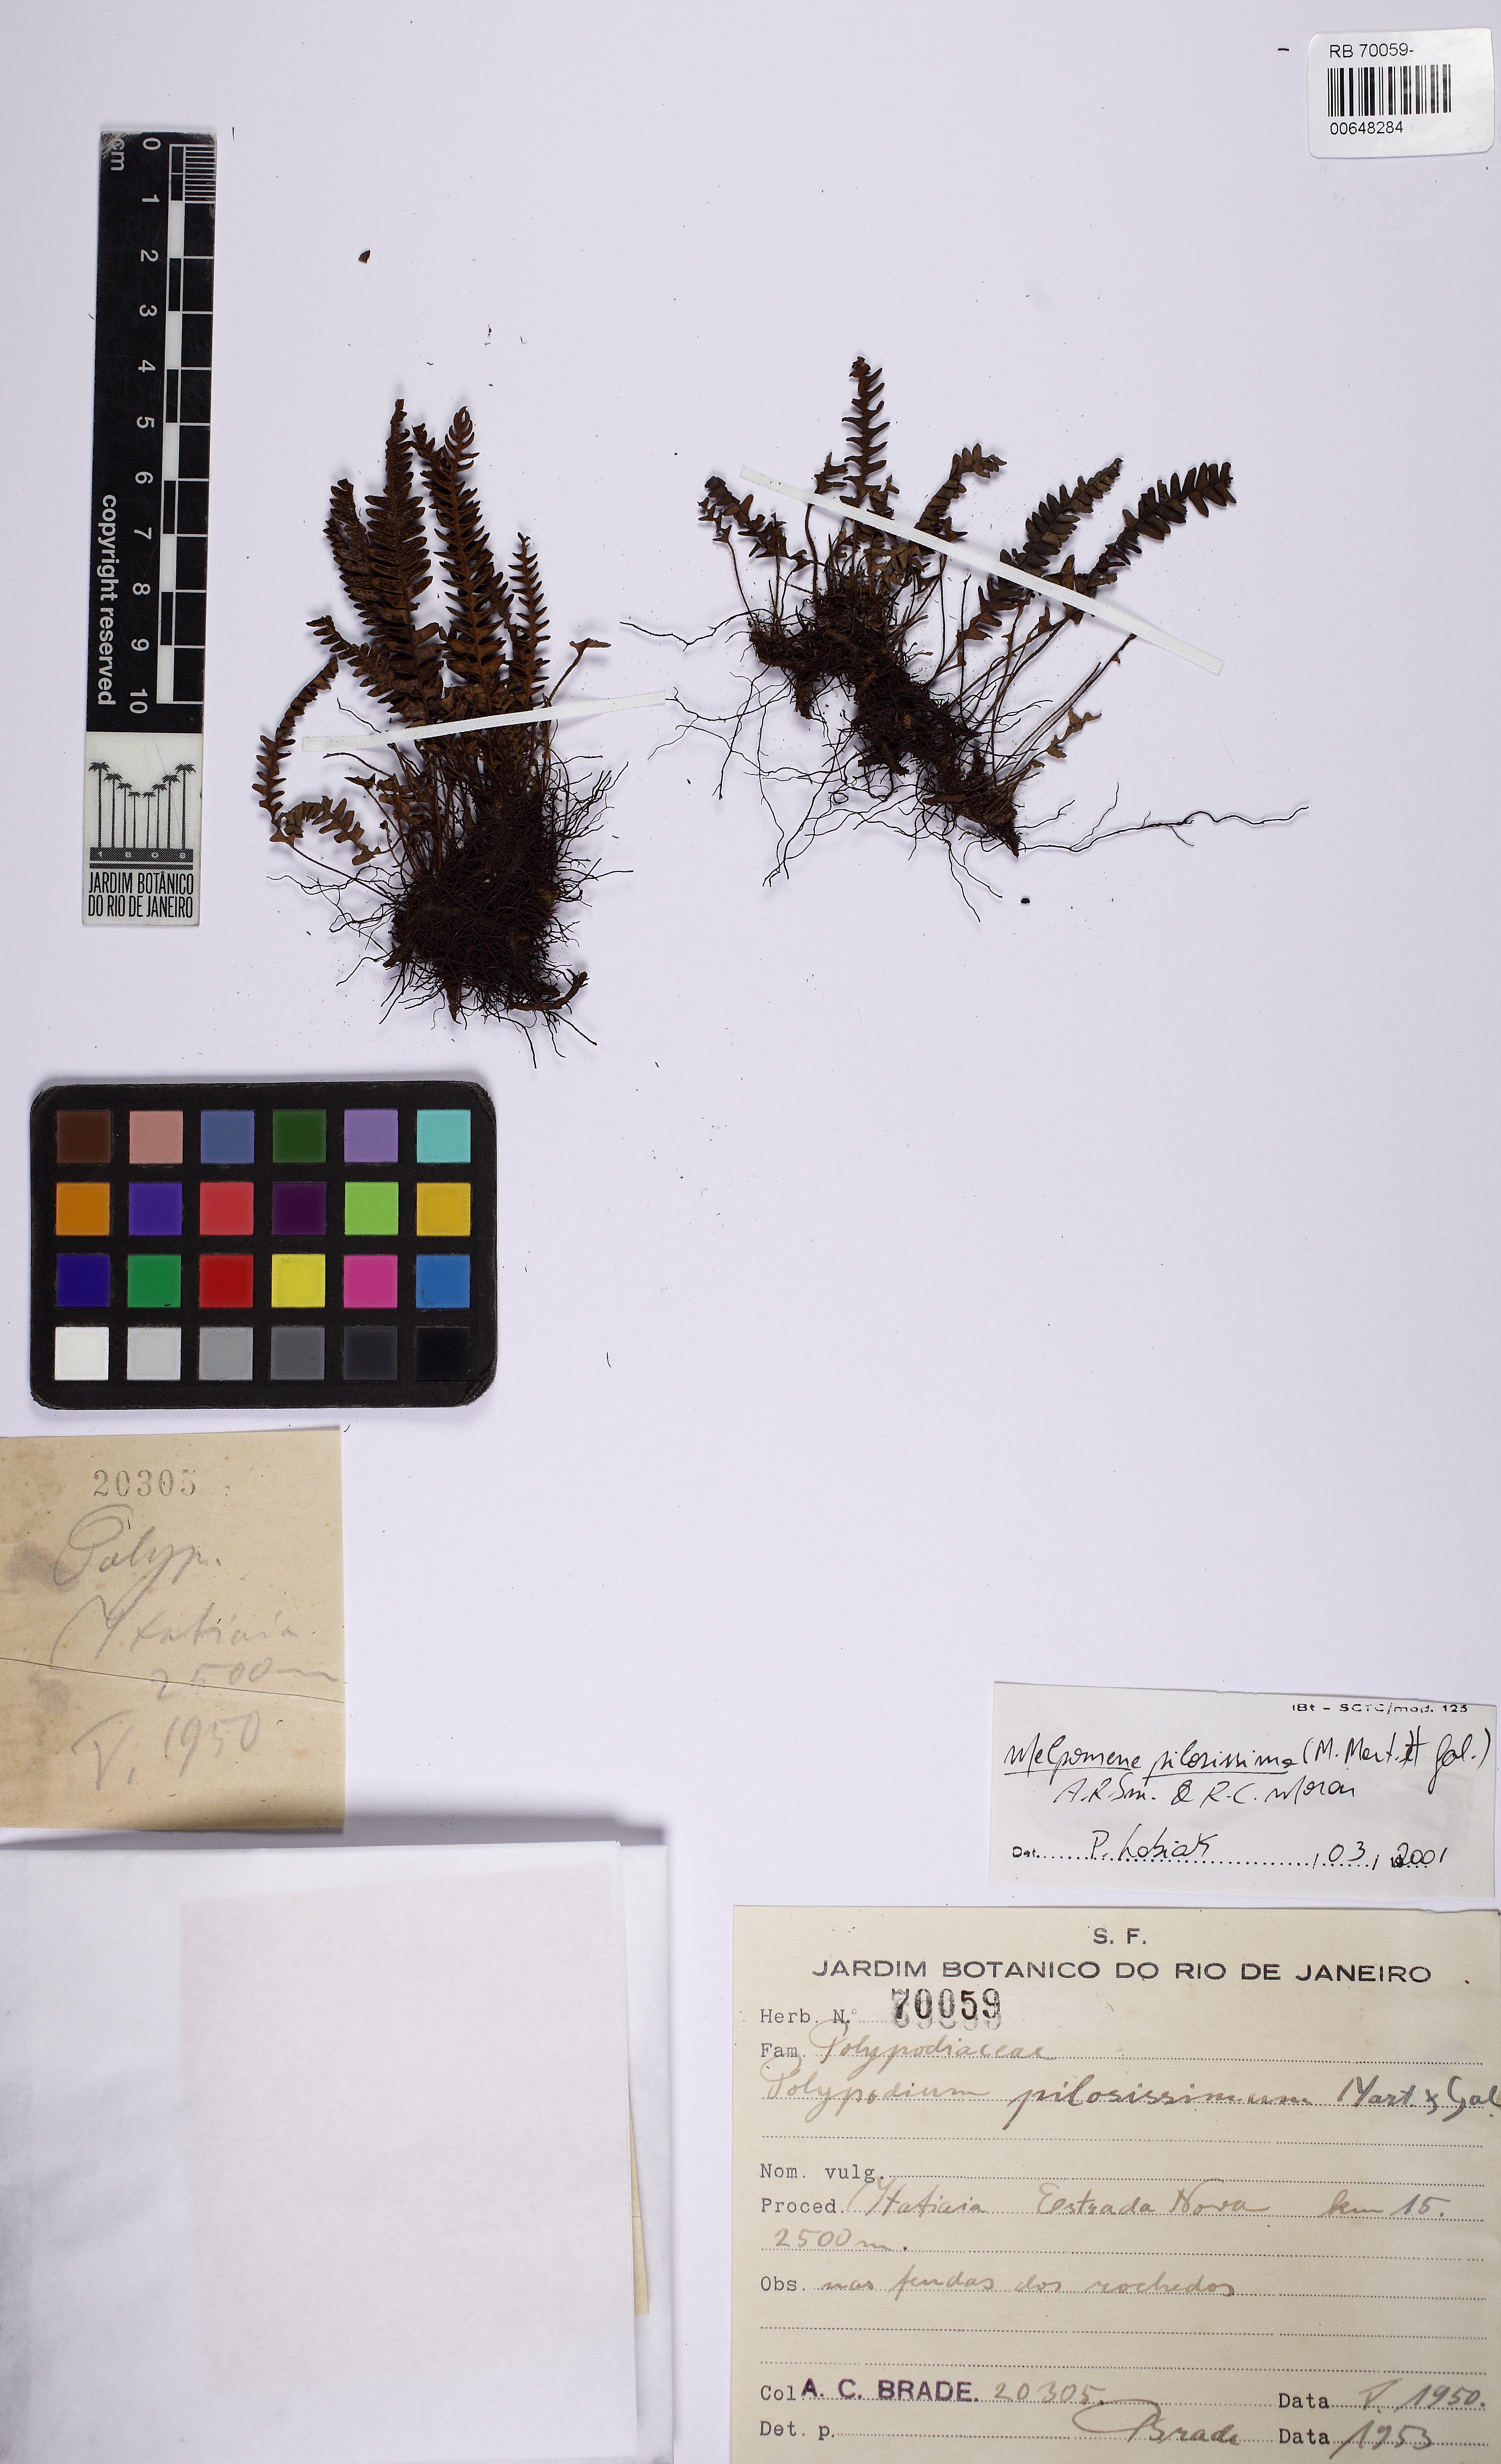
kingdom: Plantae
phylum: Tracheophyta
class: Polypodiopsida
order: Polypodiales
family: Polypodiaceae
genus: Melpomene
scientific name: Melpomene pilosissima
